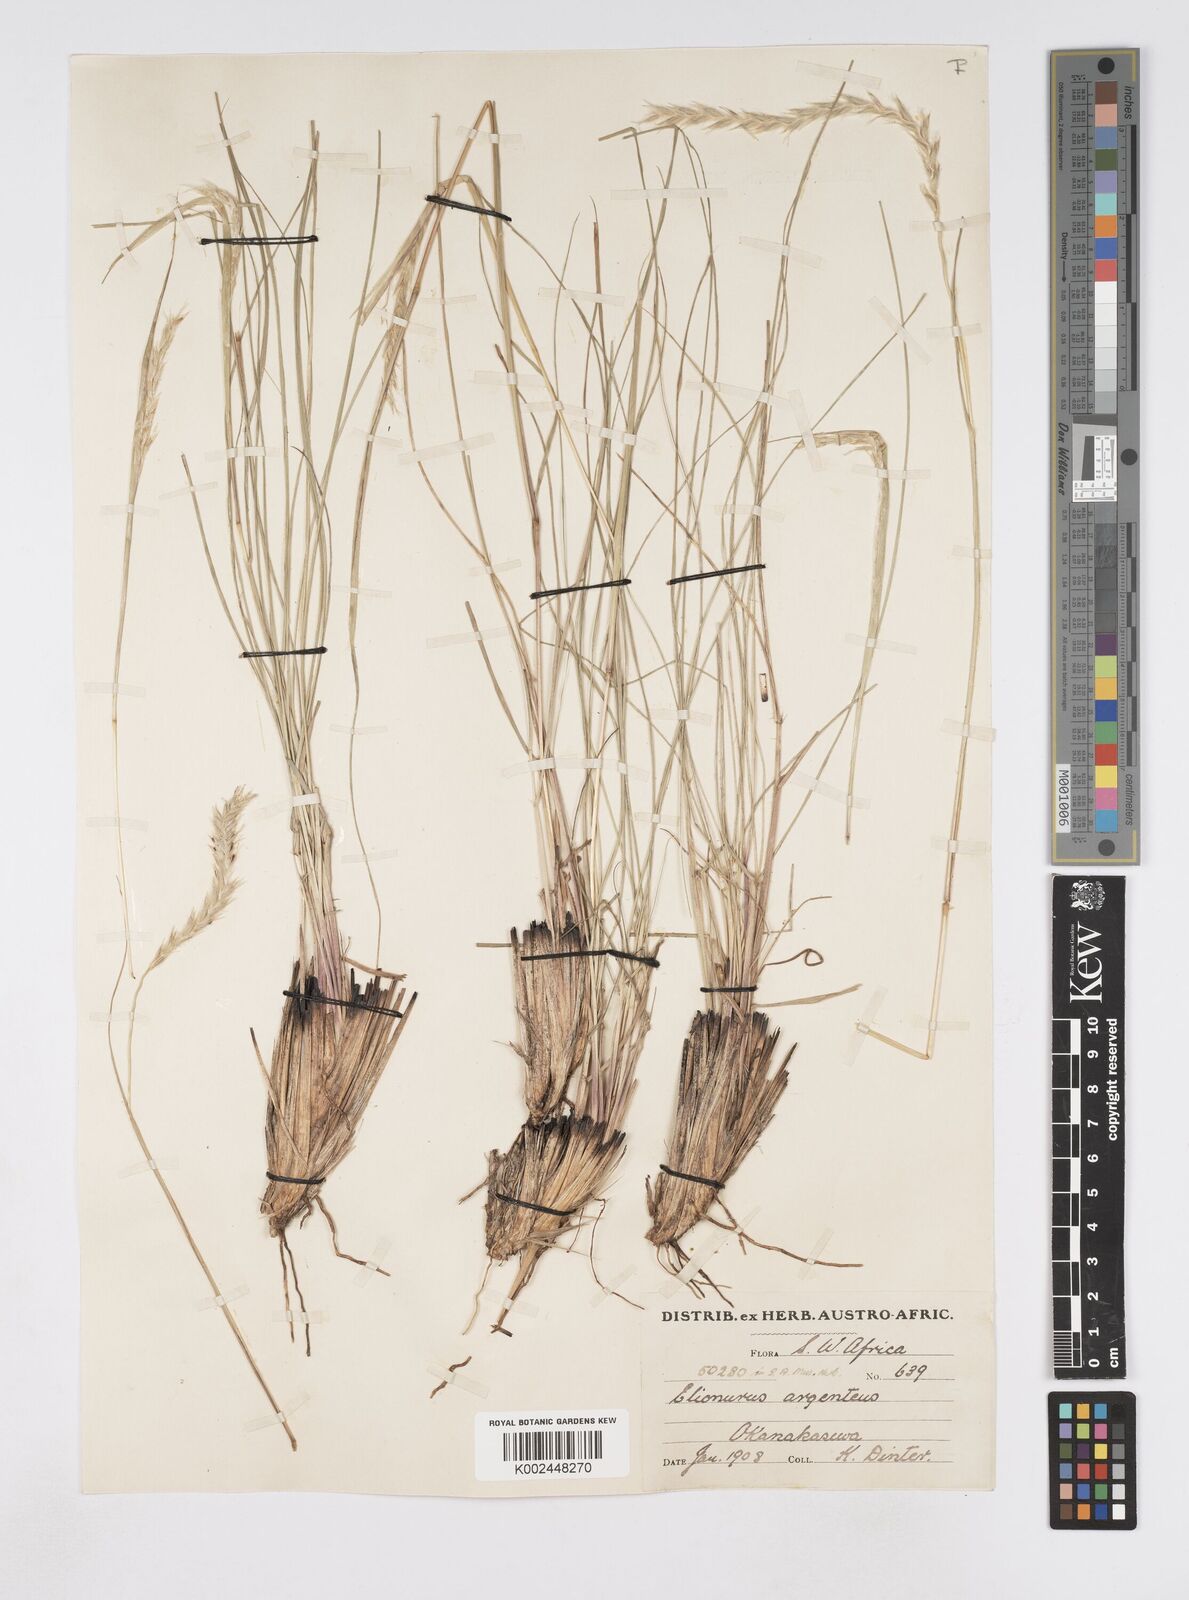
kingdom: Plantae
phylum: Tracheophyta
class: Liliopsida
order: Poales
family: Poaceae
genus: Elionurus
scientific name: Elionurus muticus
